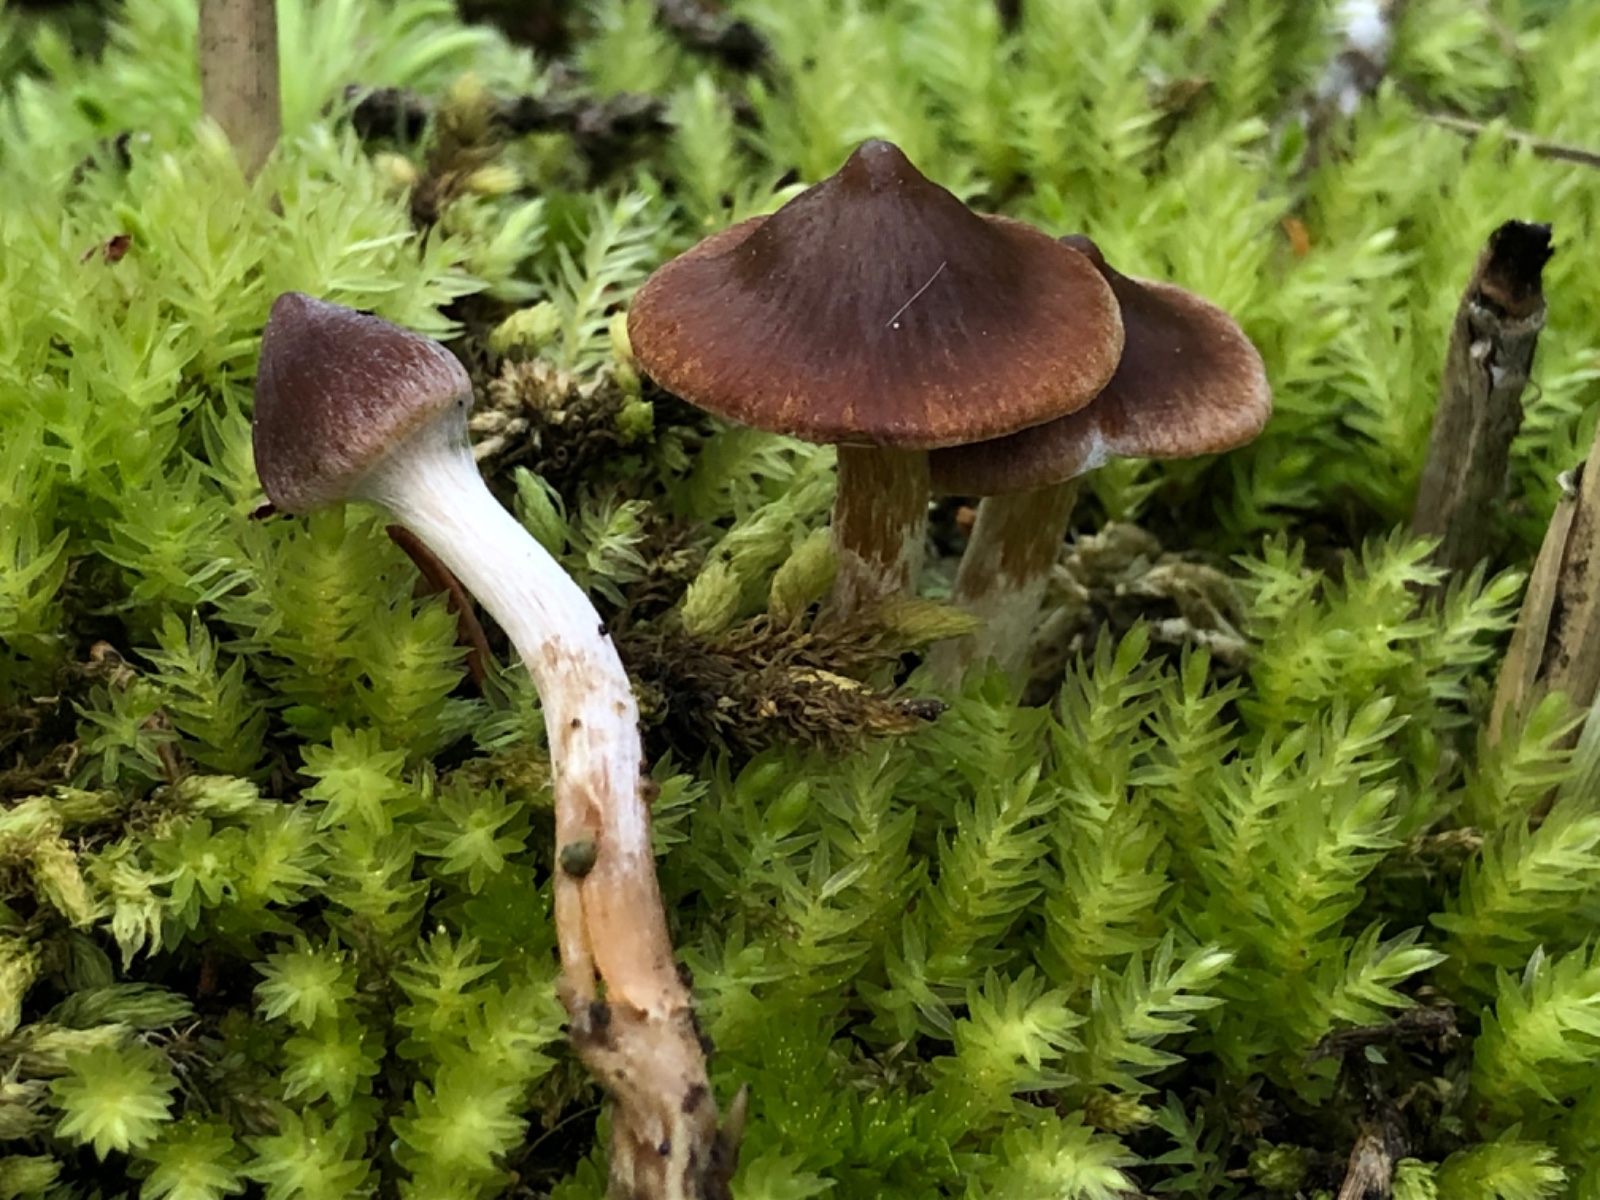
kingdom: Fungi
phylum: Basidiomycota
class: Agaricomycetes
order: Agaricales
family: Cortinariaceae
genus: Cortinarius
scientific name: Cortinarius
